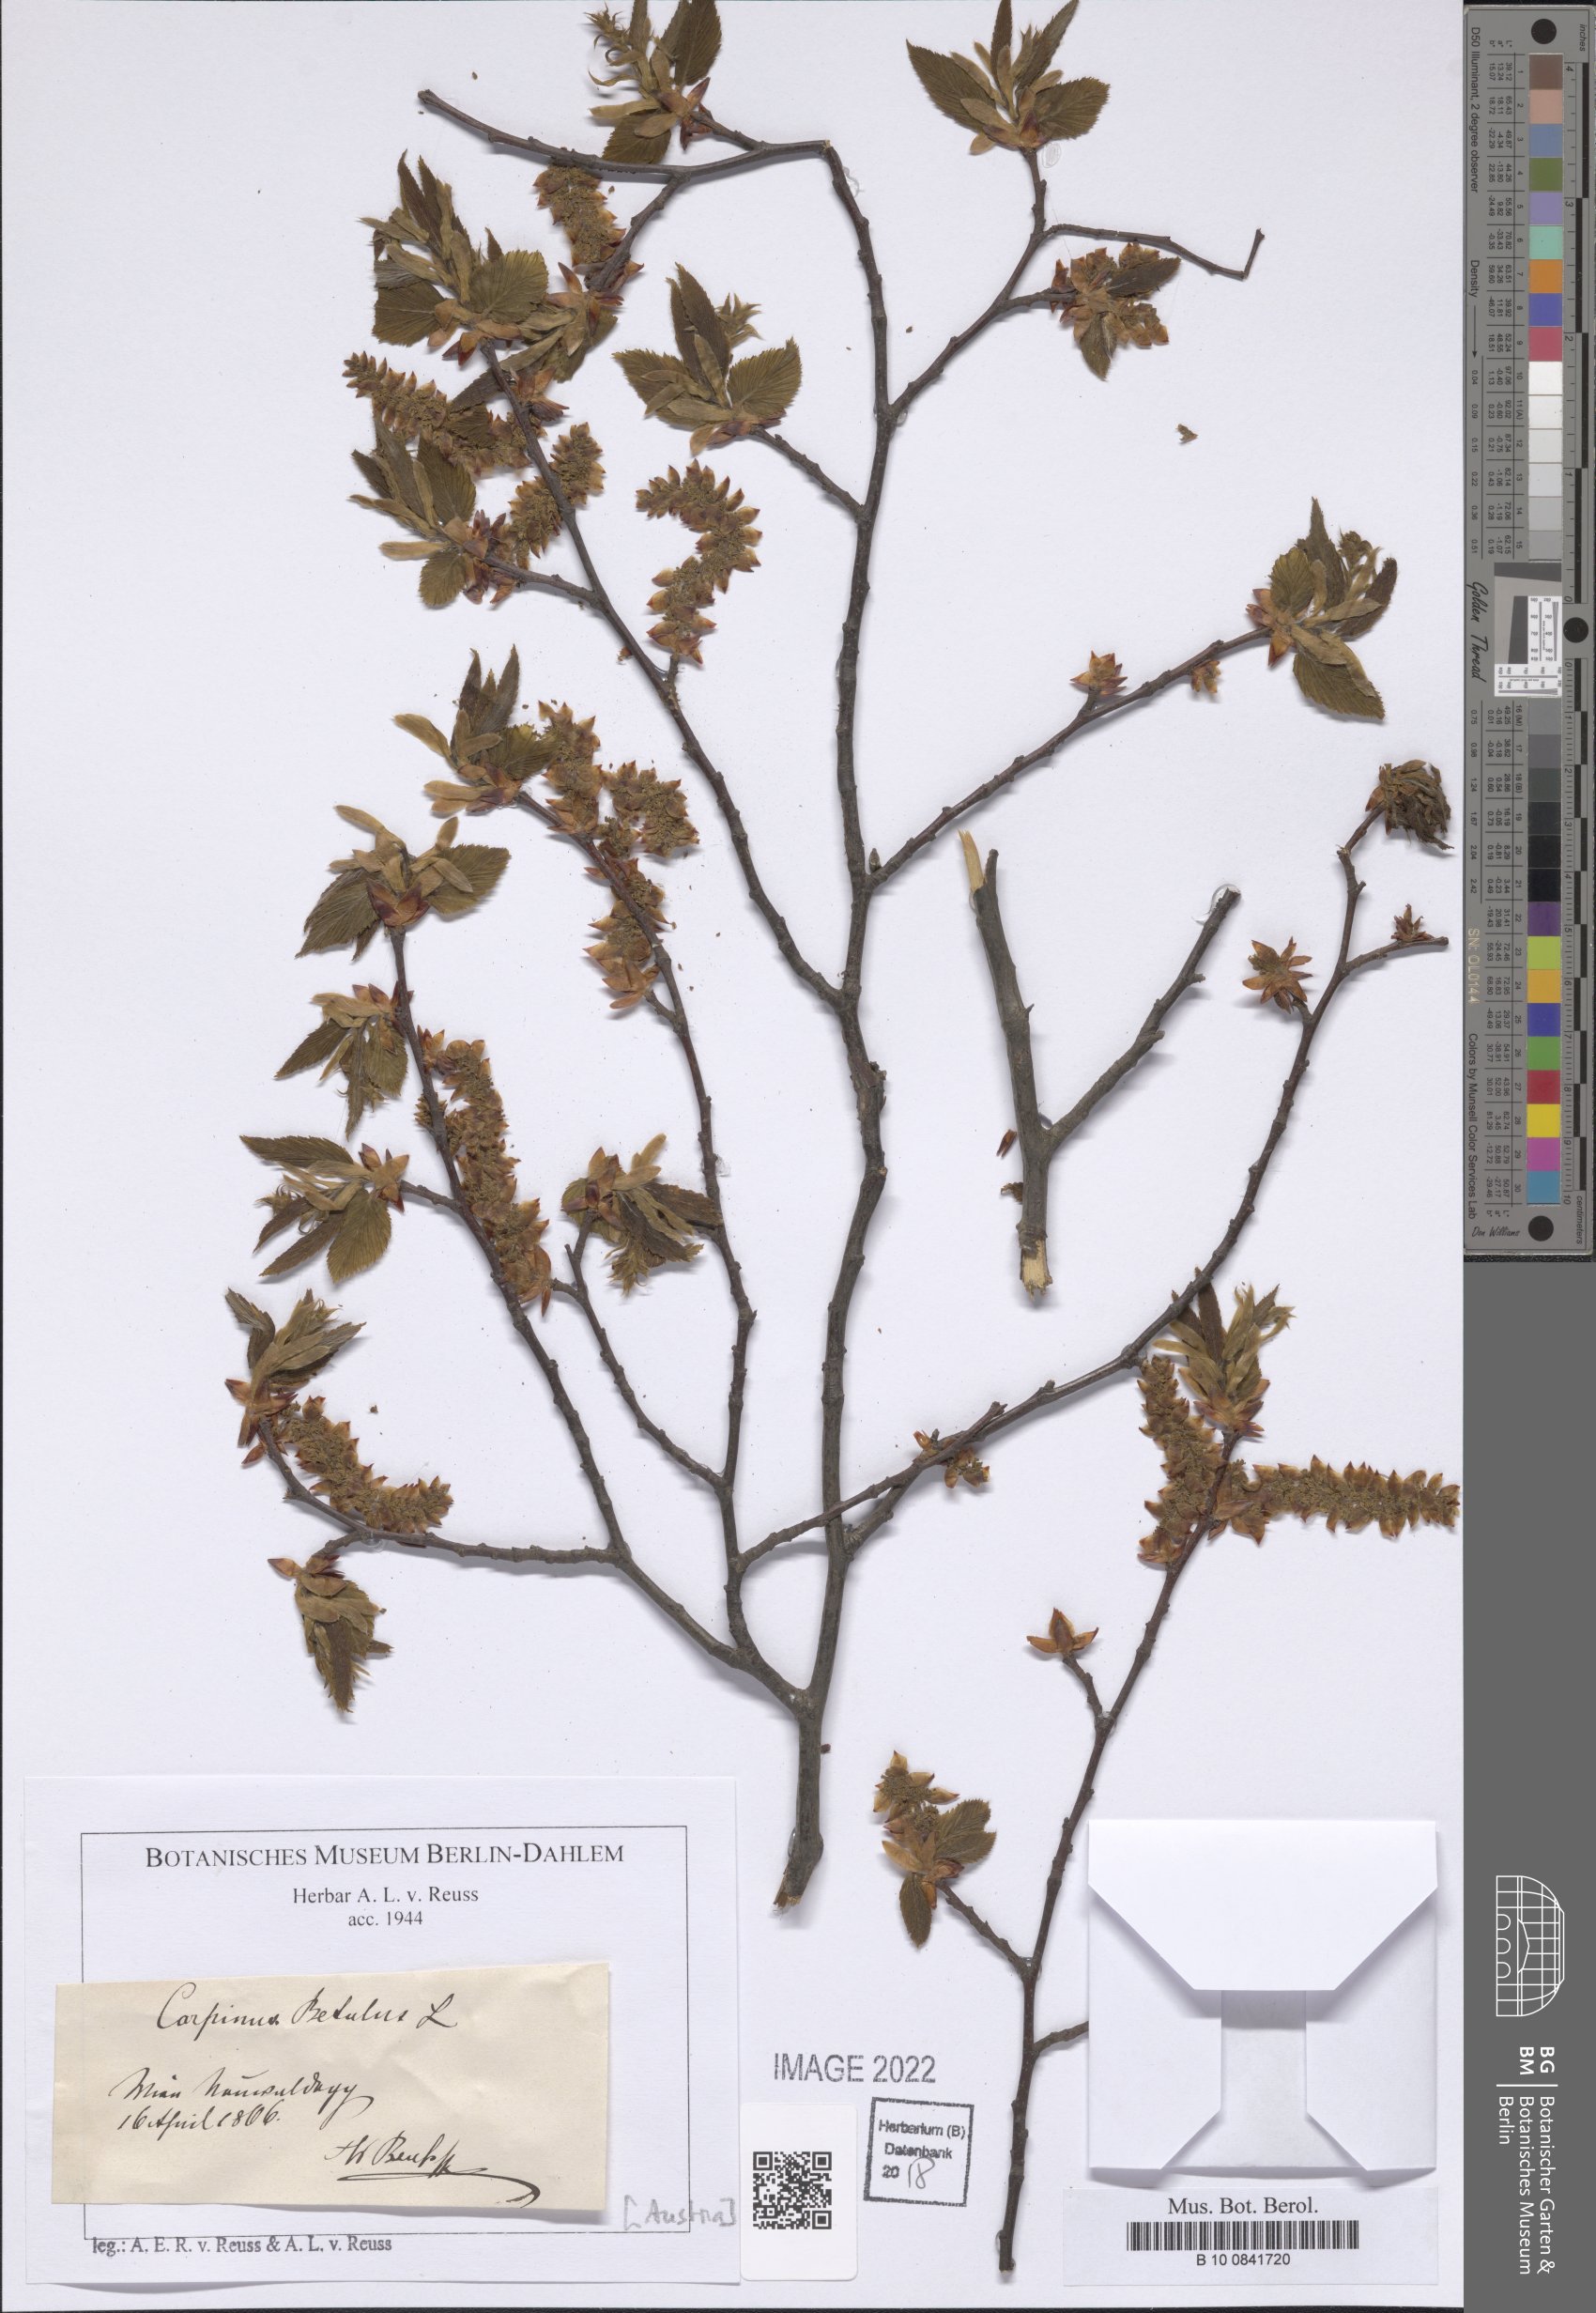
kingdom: Plantae
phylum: Tracheophyta
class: Magnoliopsida
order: Fagales
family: Betulaceae
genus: Carpinus
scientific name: Carpinus betulus
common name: Hornbeam
